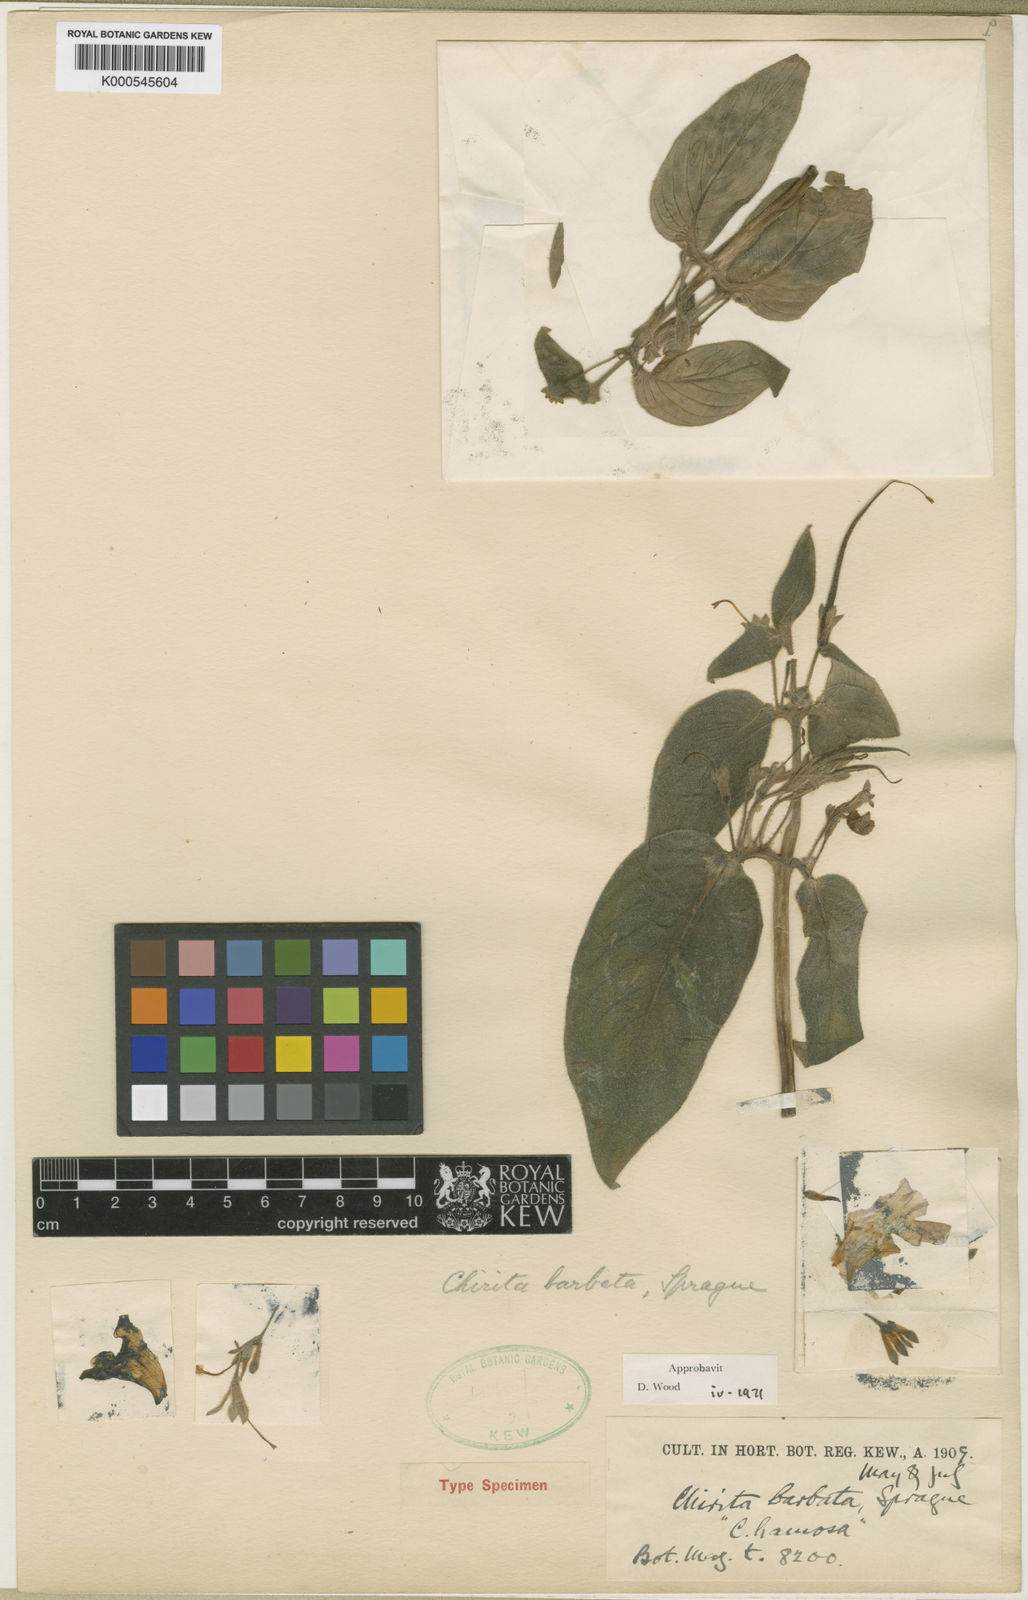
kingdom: Plantae
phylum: Tracheophyta
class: Magnoliopsida
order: Lamiales
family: Gesneriaceae
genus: Microchirita
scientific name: Microchirita barbata
